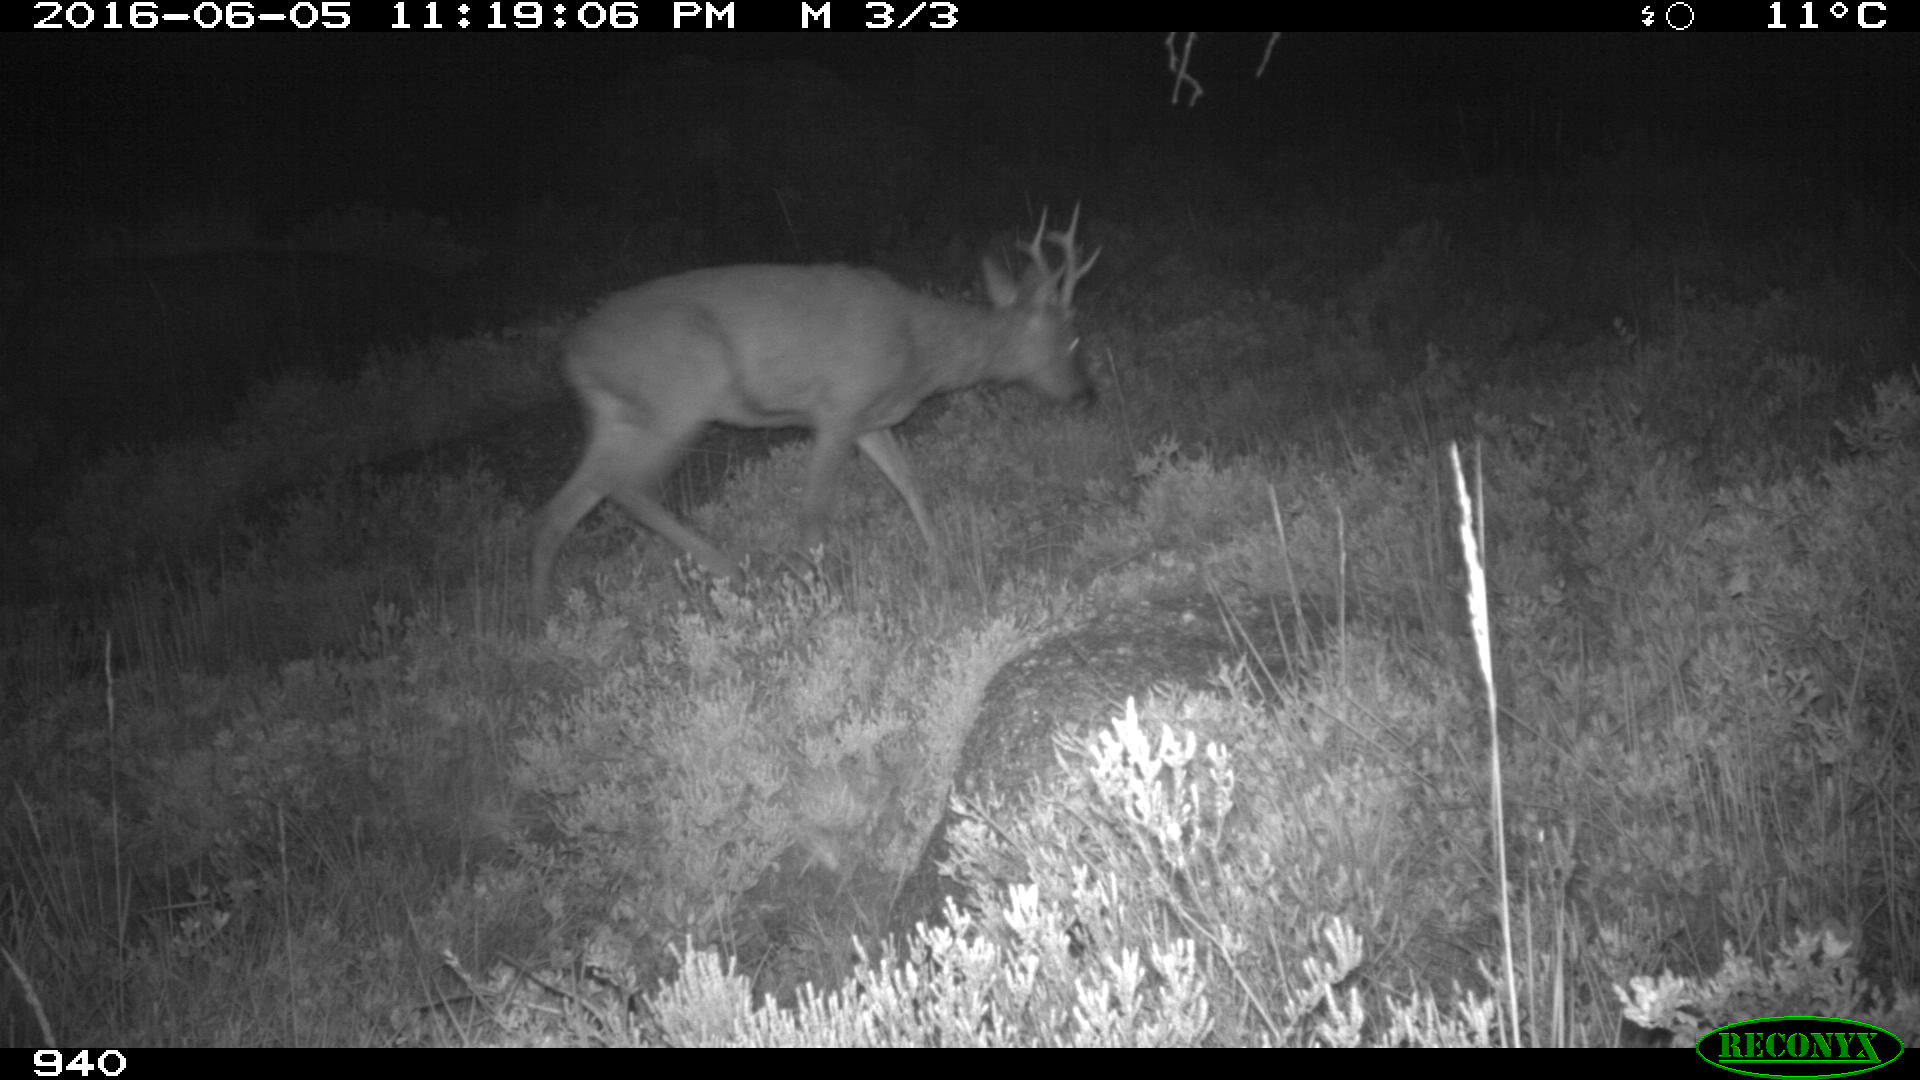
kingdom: Animalia
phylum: Chordata
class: Mammalia
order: Artiodactyla
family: Cervidae
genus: Capreolus
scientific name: Capreolus capreolus
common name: Western roe deer
